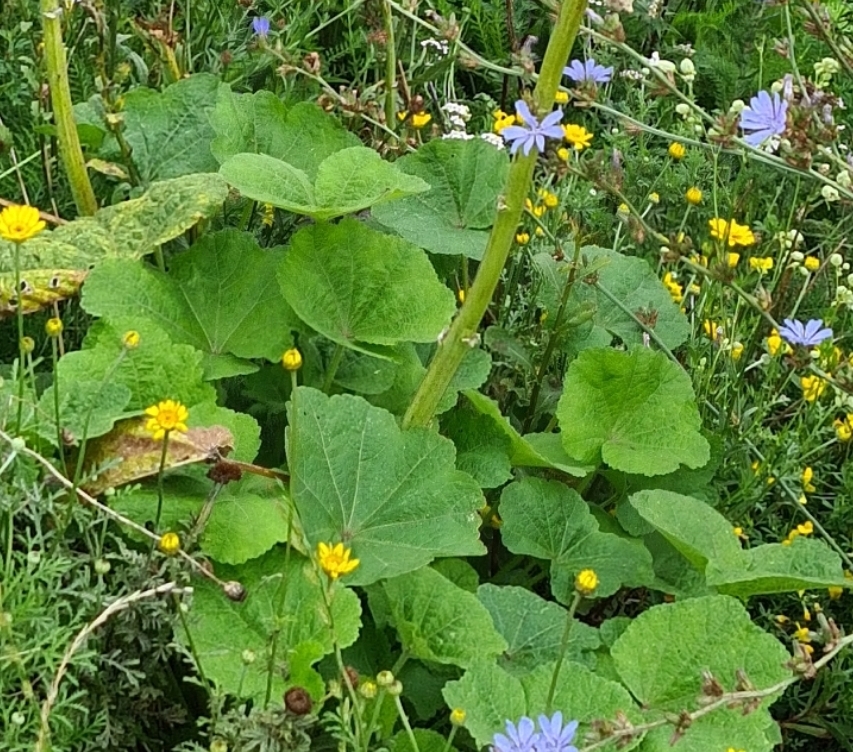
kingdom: Plantae
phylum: Tracheophyta
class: Magnoliopsida
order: Malvales
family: Malvaceae
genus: Alcea
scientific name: Alcea rosea
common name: Have-stokrose
